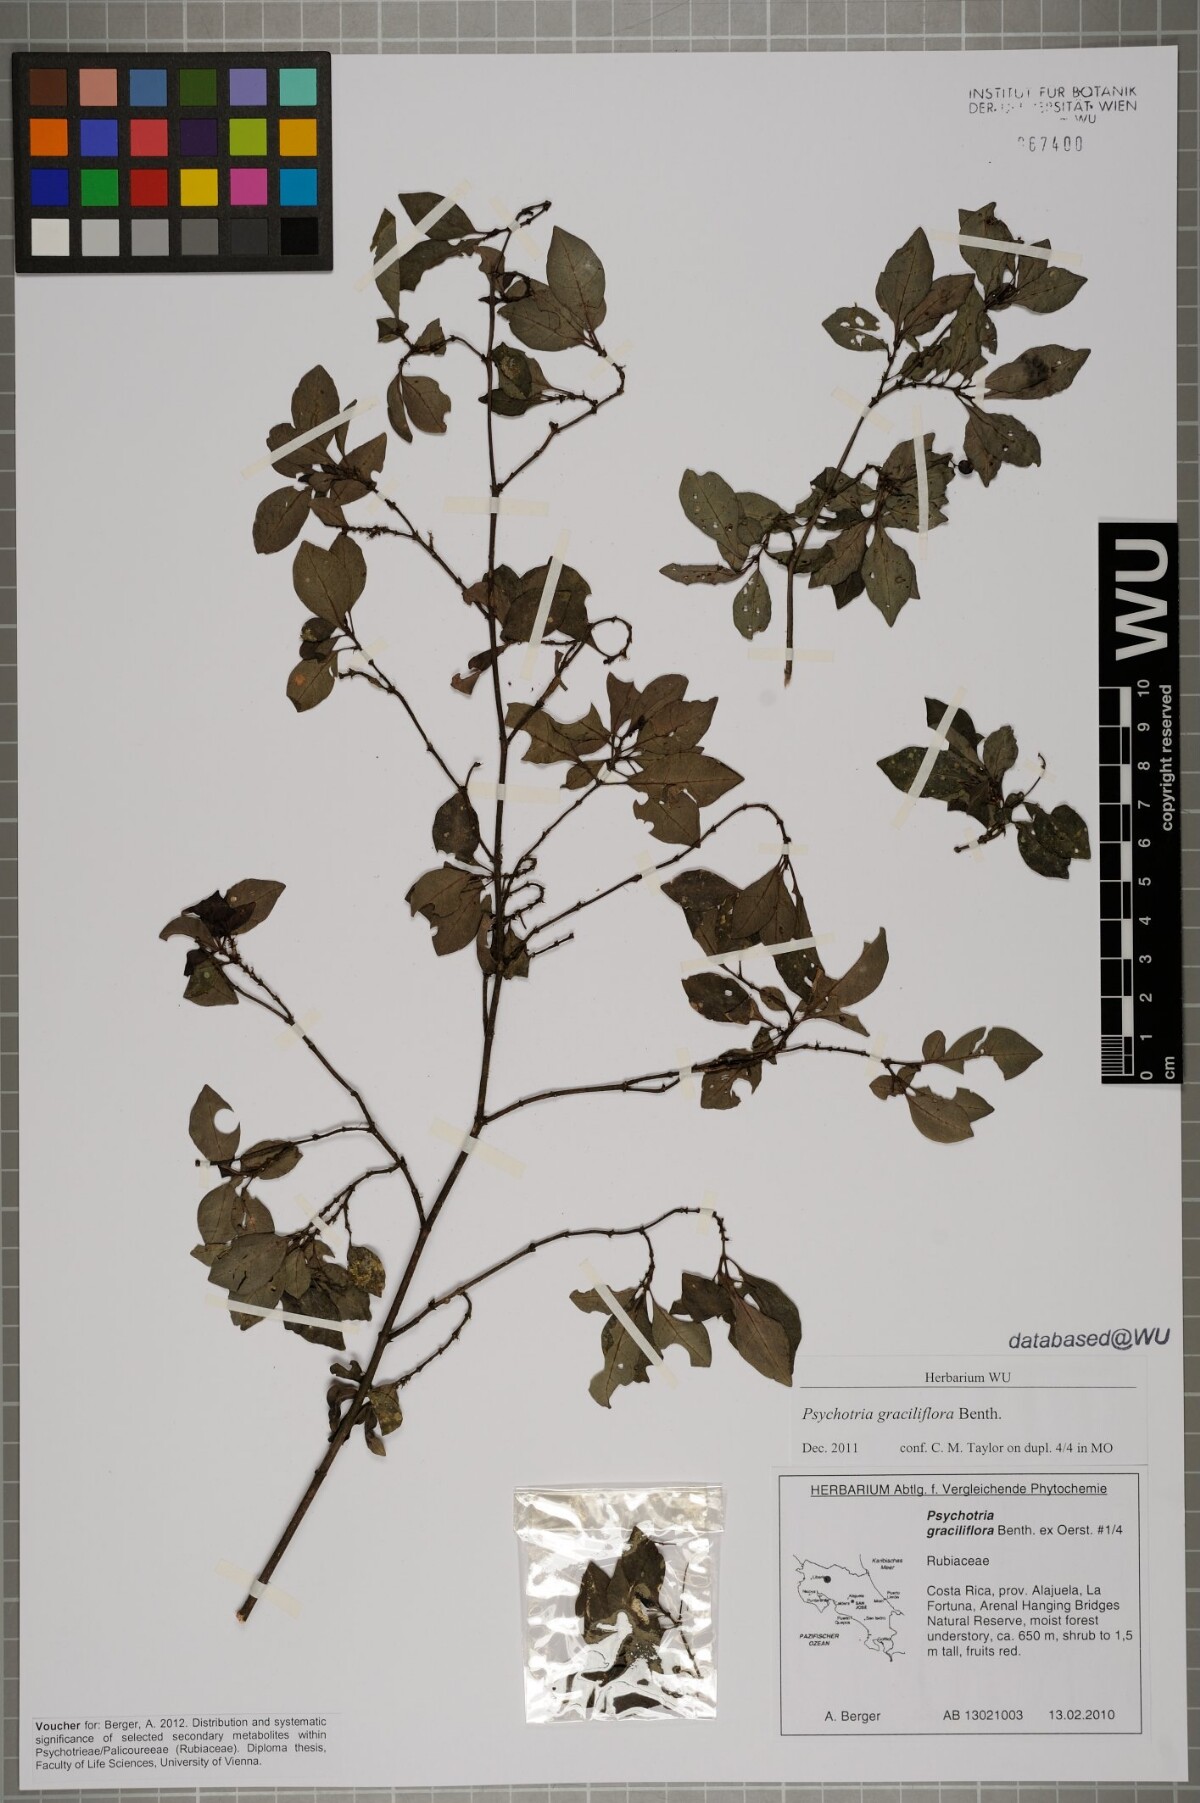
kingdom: Plantae
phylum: Tracheophyta
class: Magnoliopsida
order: Gentianales
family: Rubiaceae
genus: Psychotria
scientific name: Psychotria biaristata
